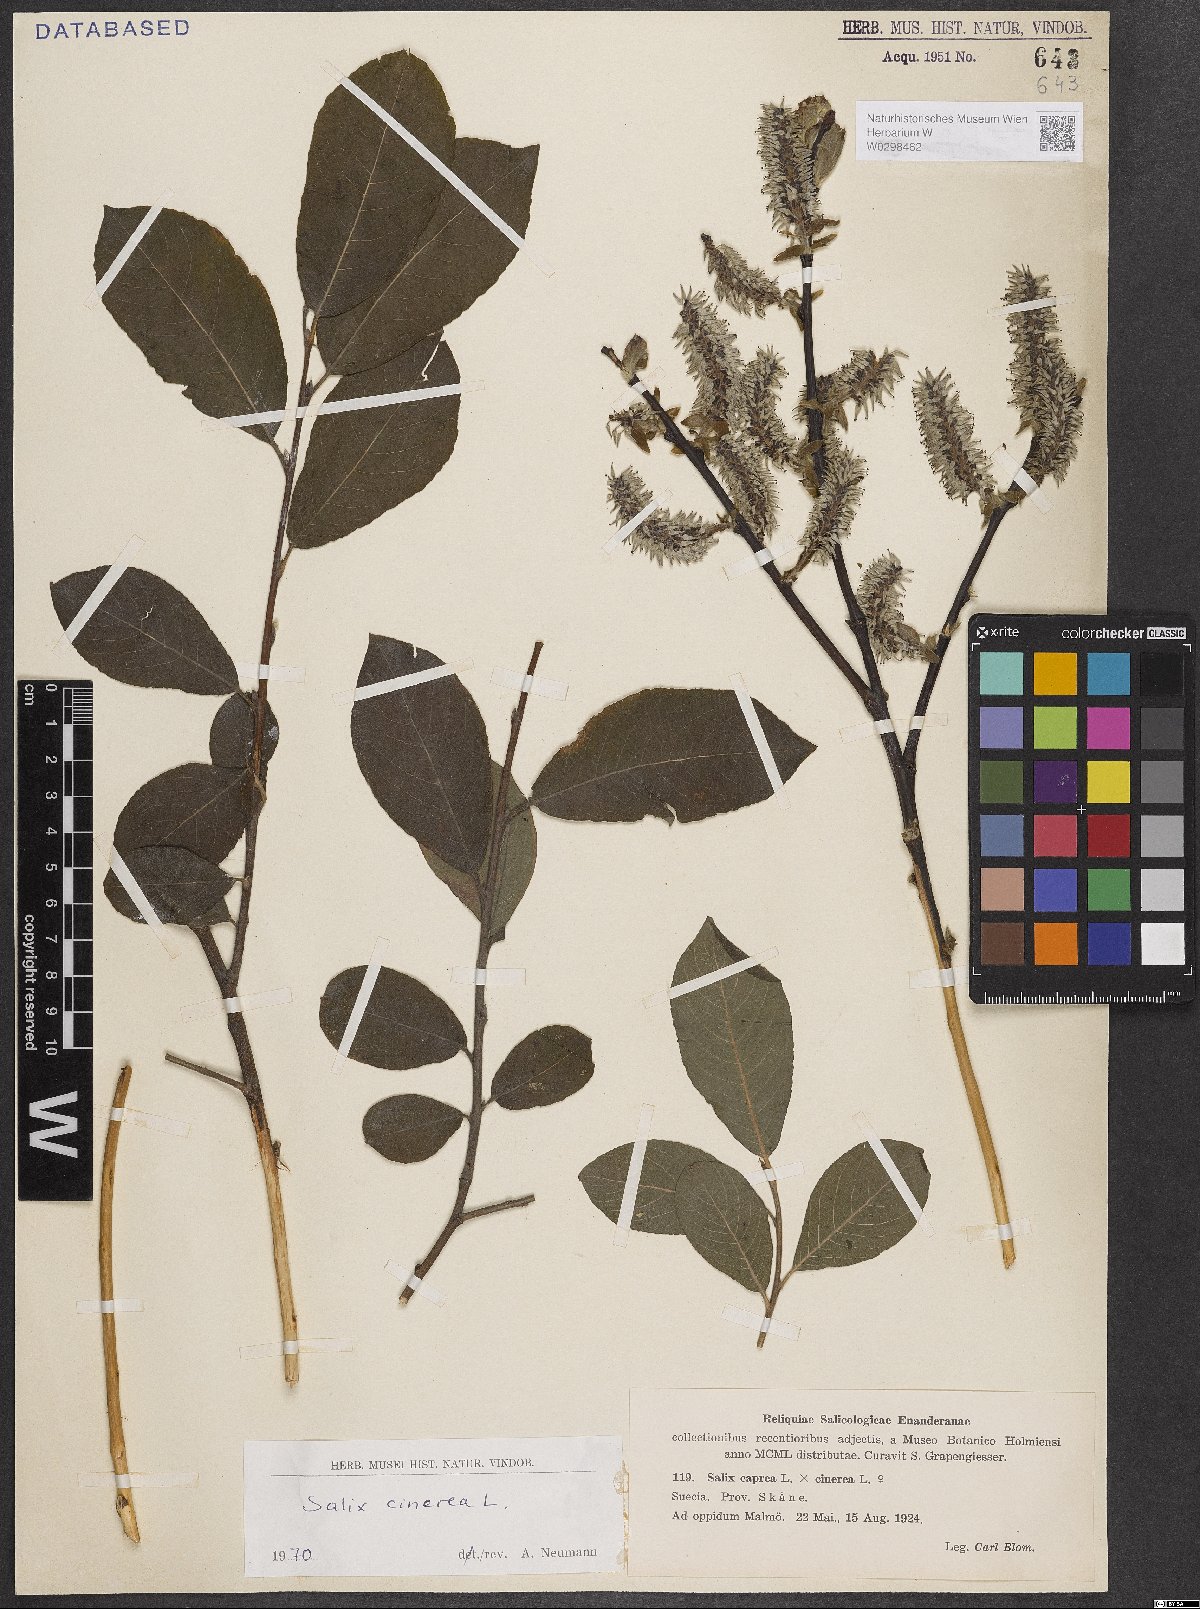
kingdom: Plantae
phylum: Tracheophyta
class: Magnoliopsida
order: Malpighiales
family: Salicaceae
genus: Salix
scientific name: Salix cinerea
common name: Common sallow
